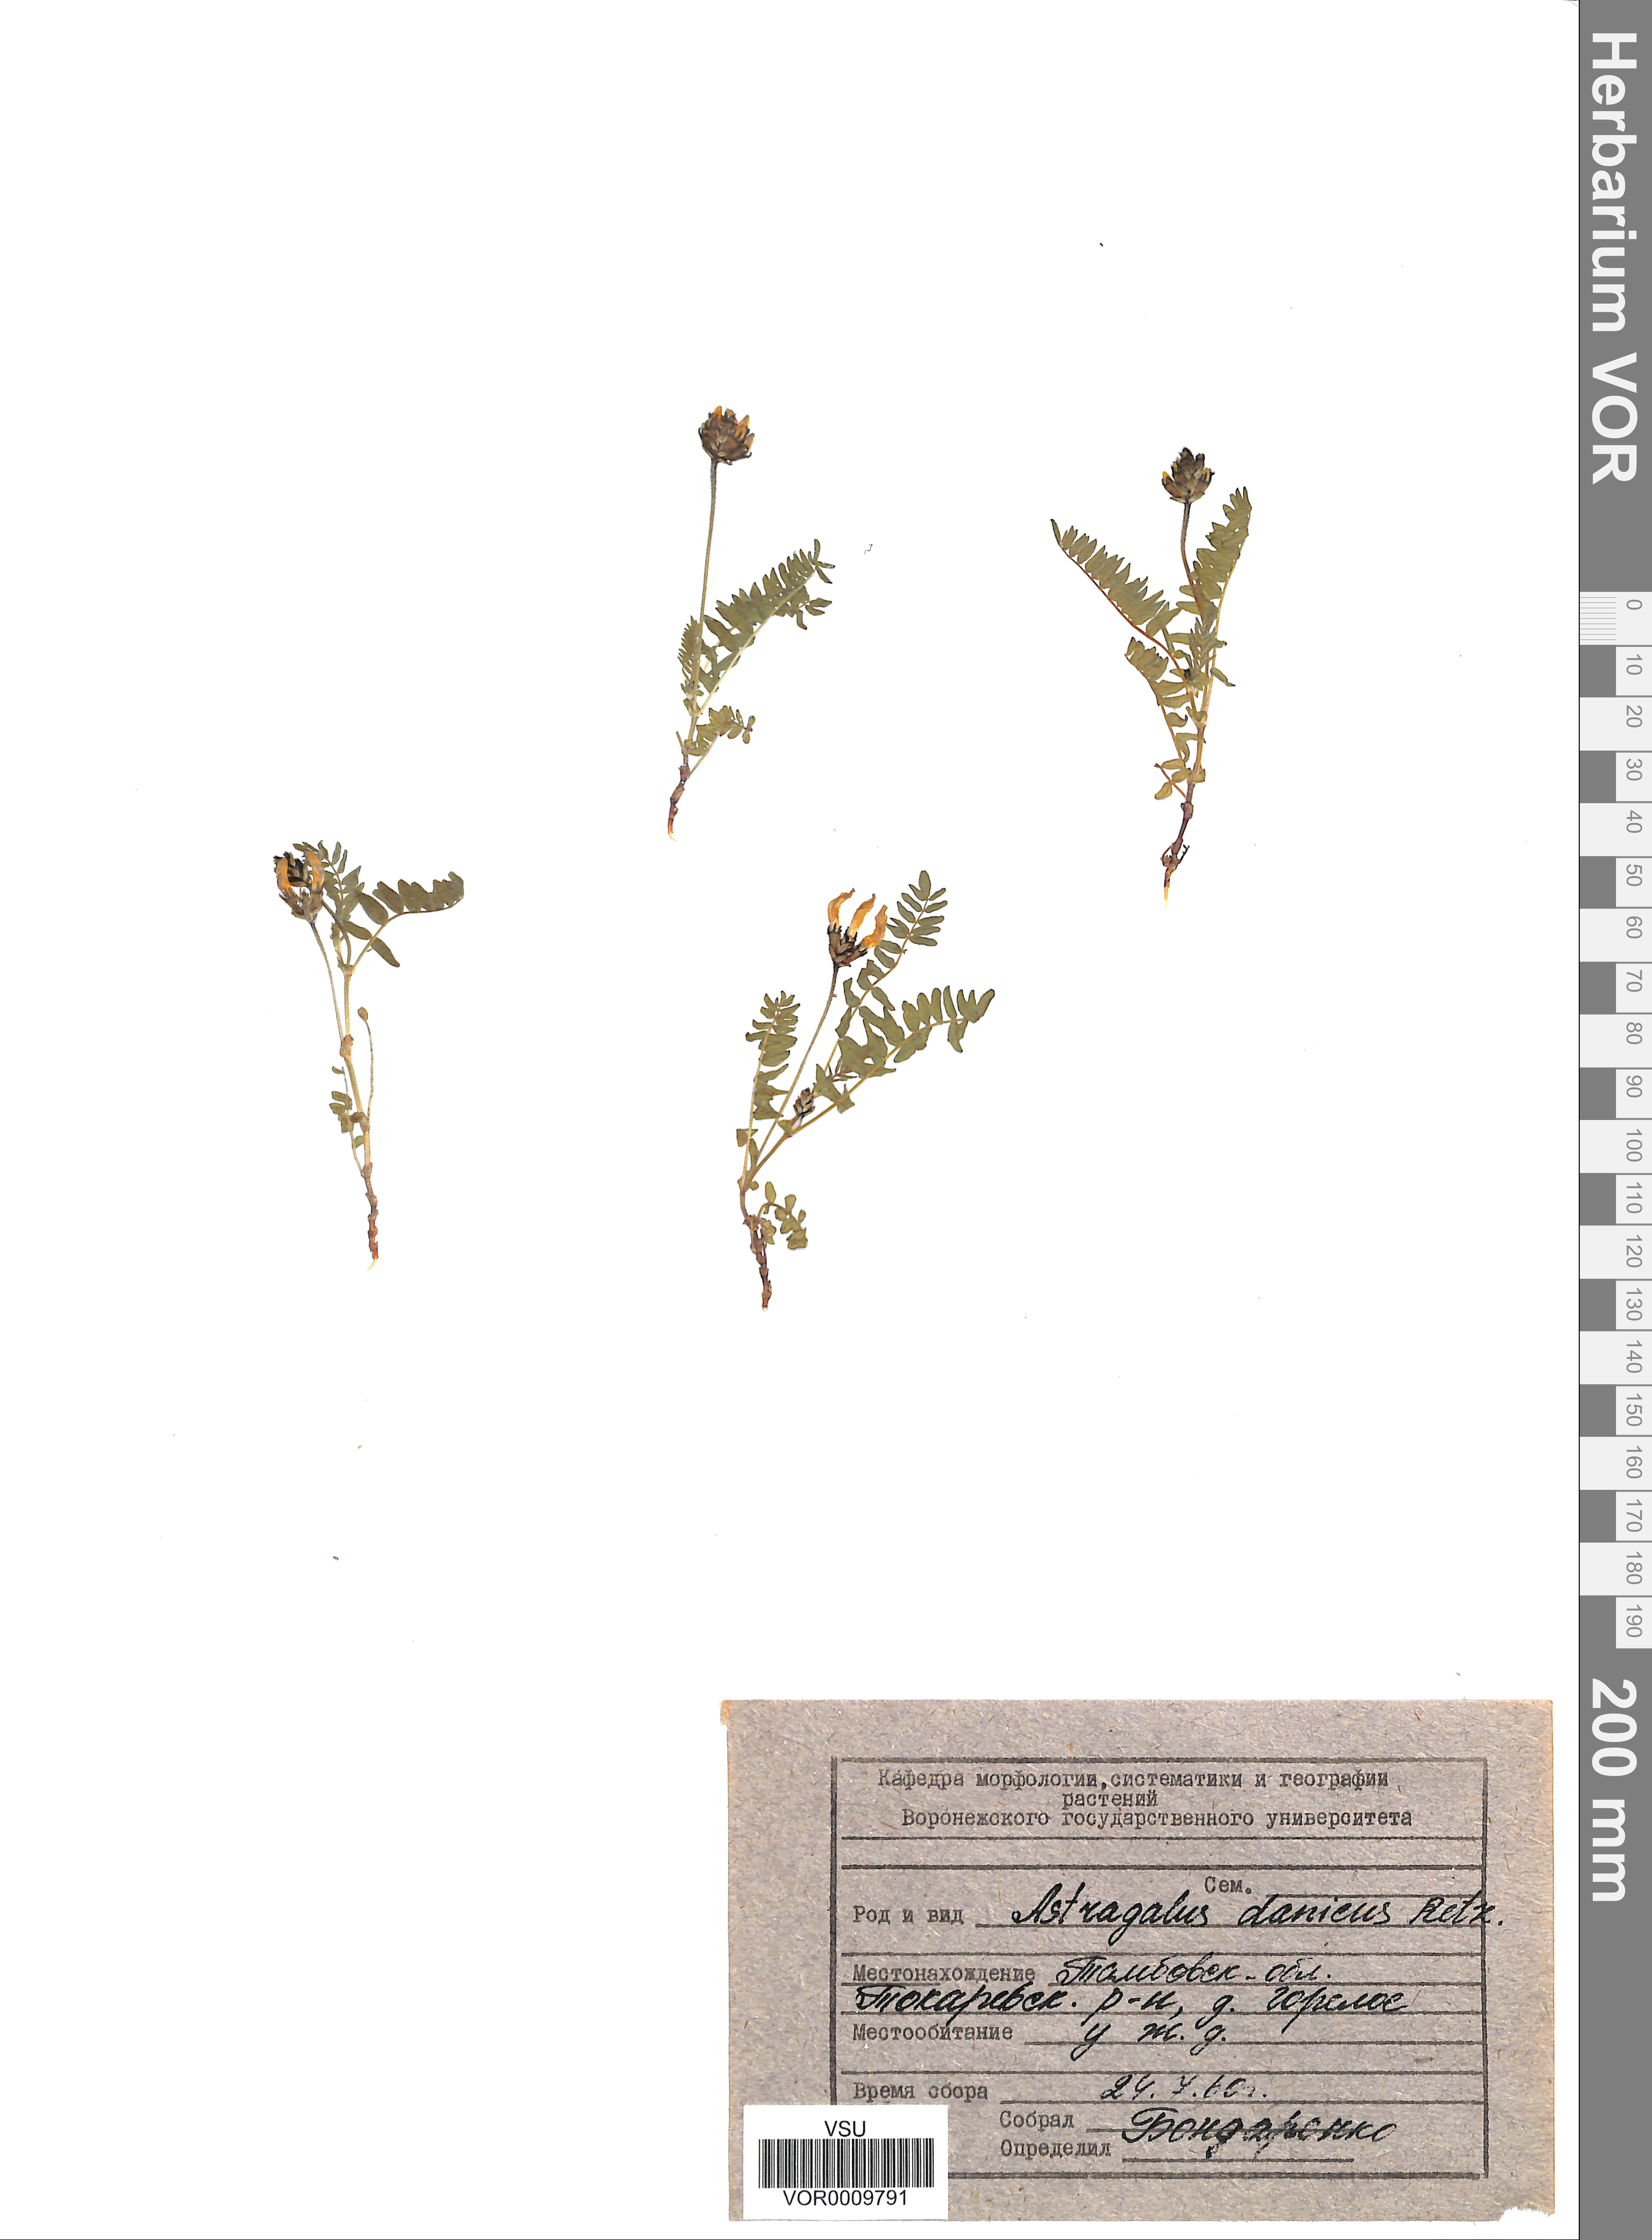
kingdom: Plantae
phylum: Tracheophyta
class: Magnoliopsida
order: Fabales
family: Fabaceae
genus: Astragalus
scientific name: Astragalus danicus
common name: Purple milk-vetch
